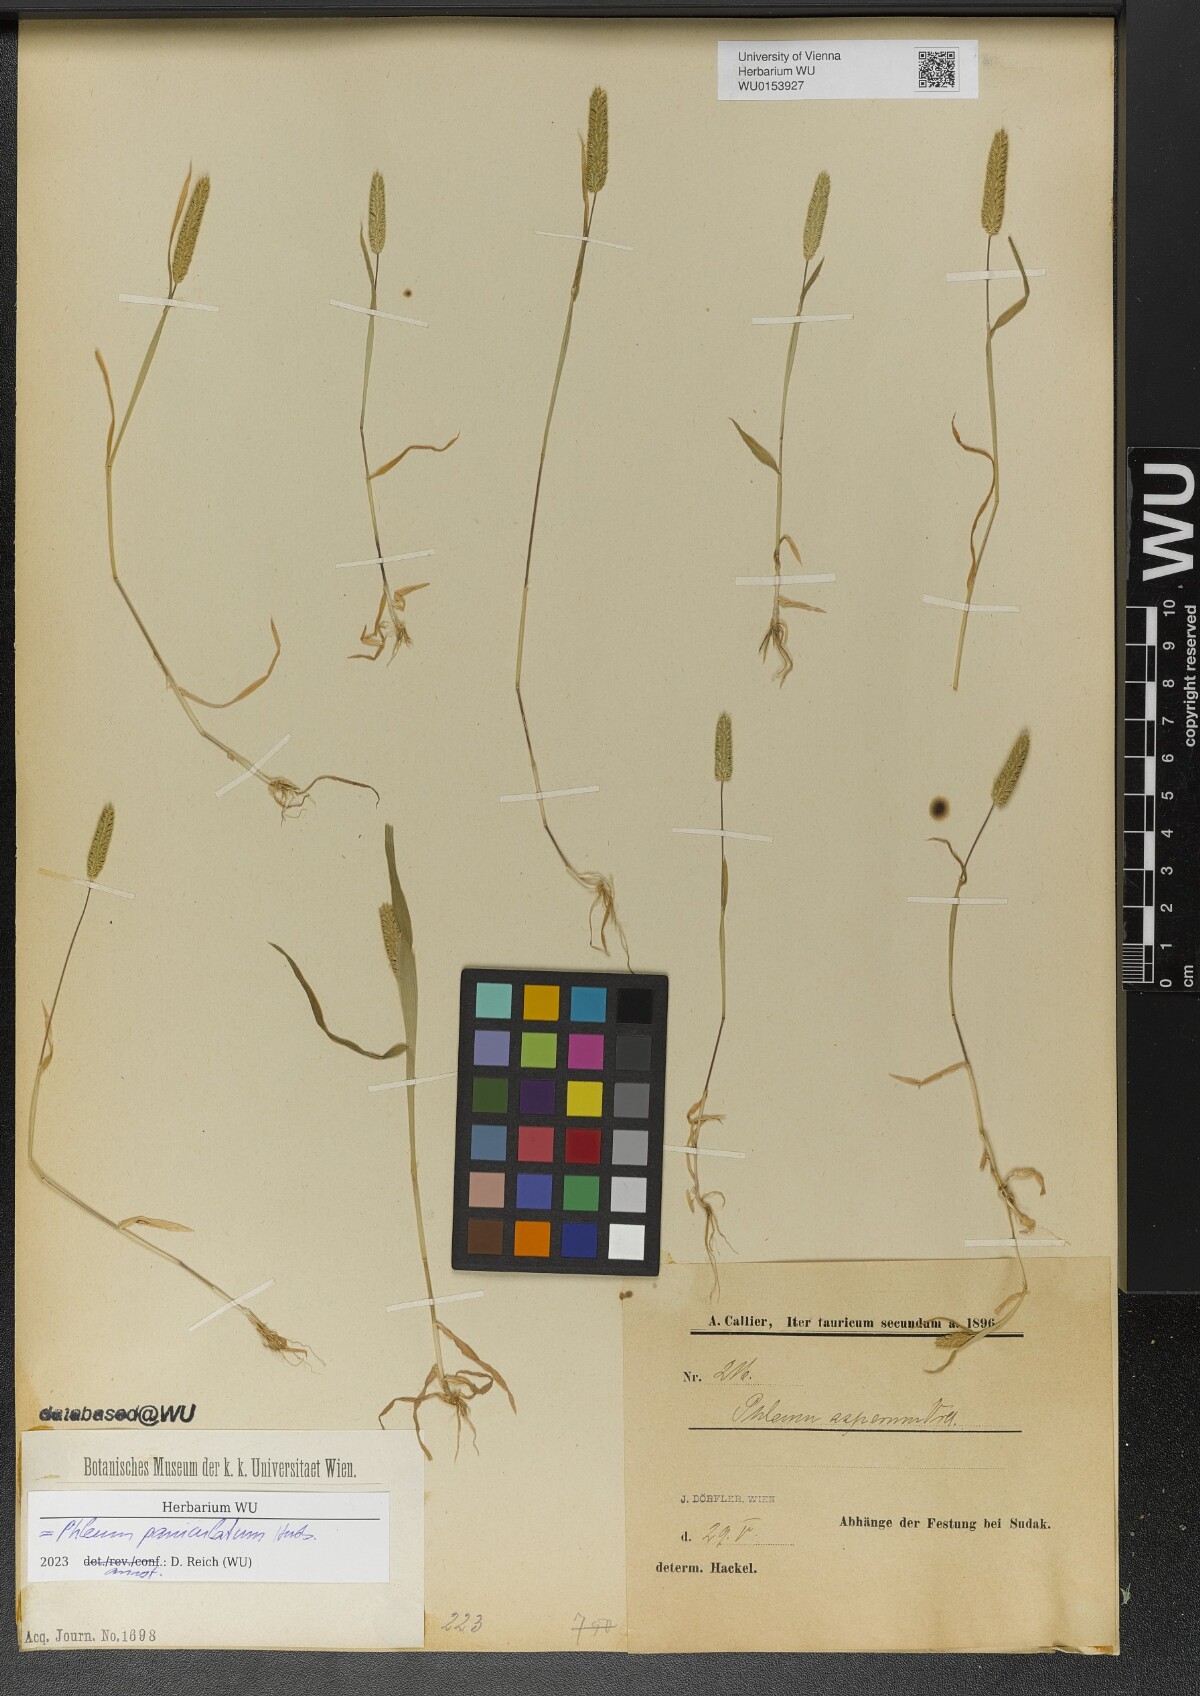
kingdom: Plantae
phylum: Tracheophyta
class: Liliopsida
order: Poales
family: Poaceae
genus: Phleum
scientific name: Phleum paniculatum
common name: British timothy
